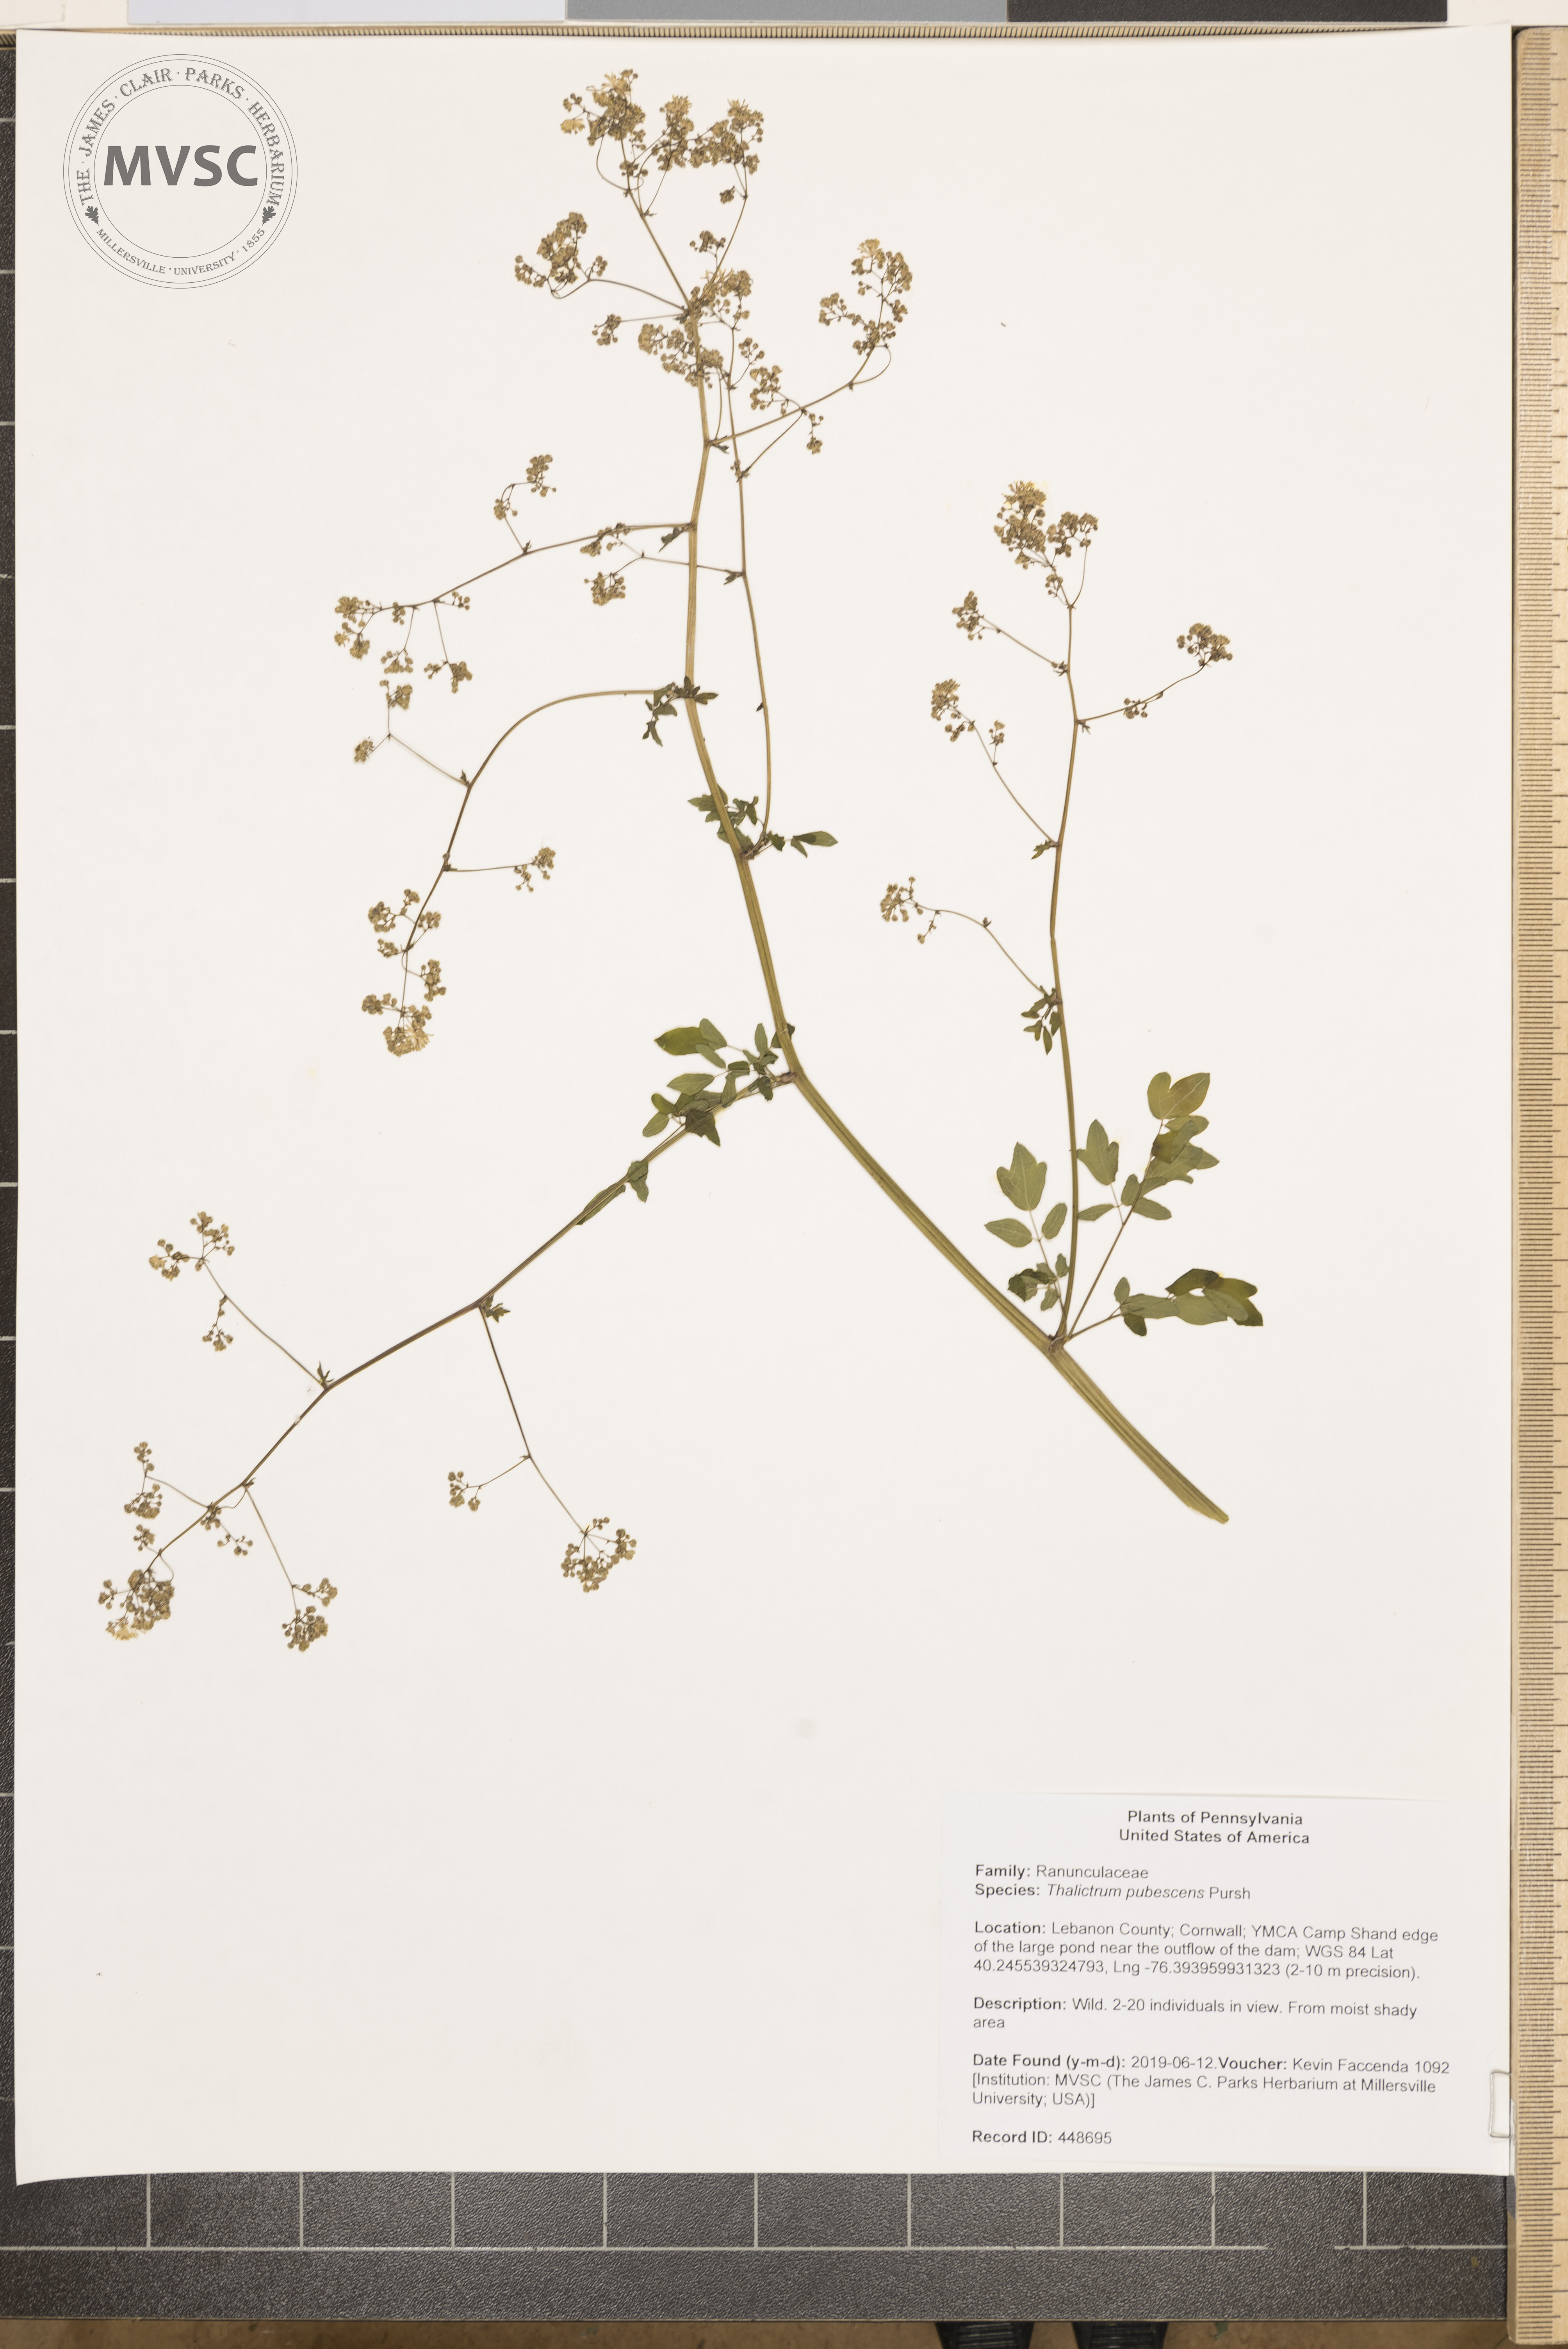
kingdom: Plantae
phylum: Tracheophyta
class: Magnoliopsida
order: Ranunculales
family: Ranunculaceae
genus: Thalictrum
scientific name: Thalictrum pubescens
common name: King-of-the-meadow
